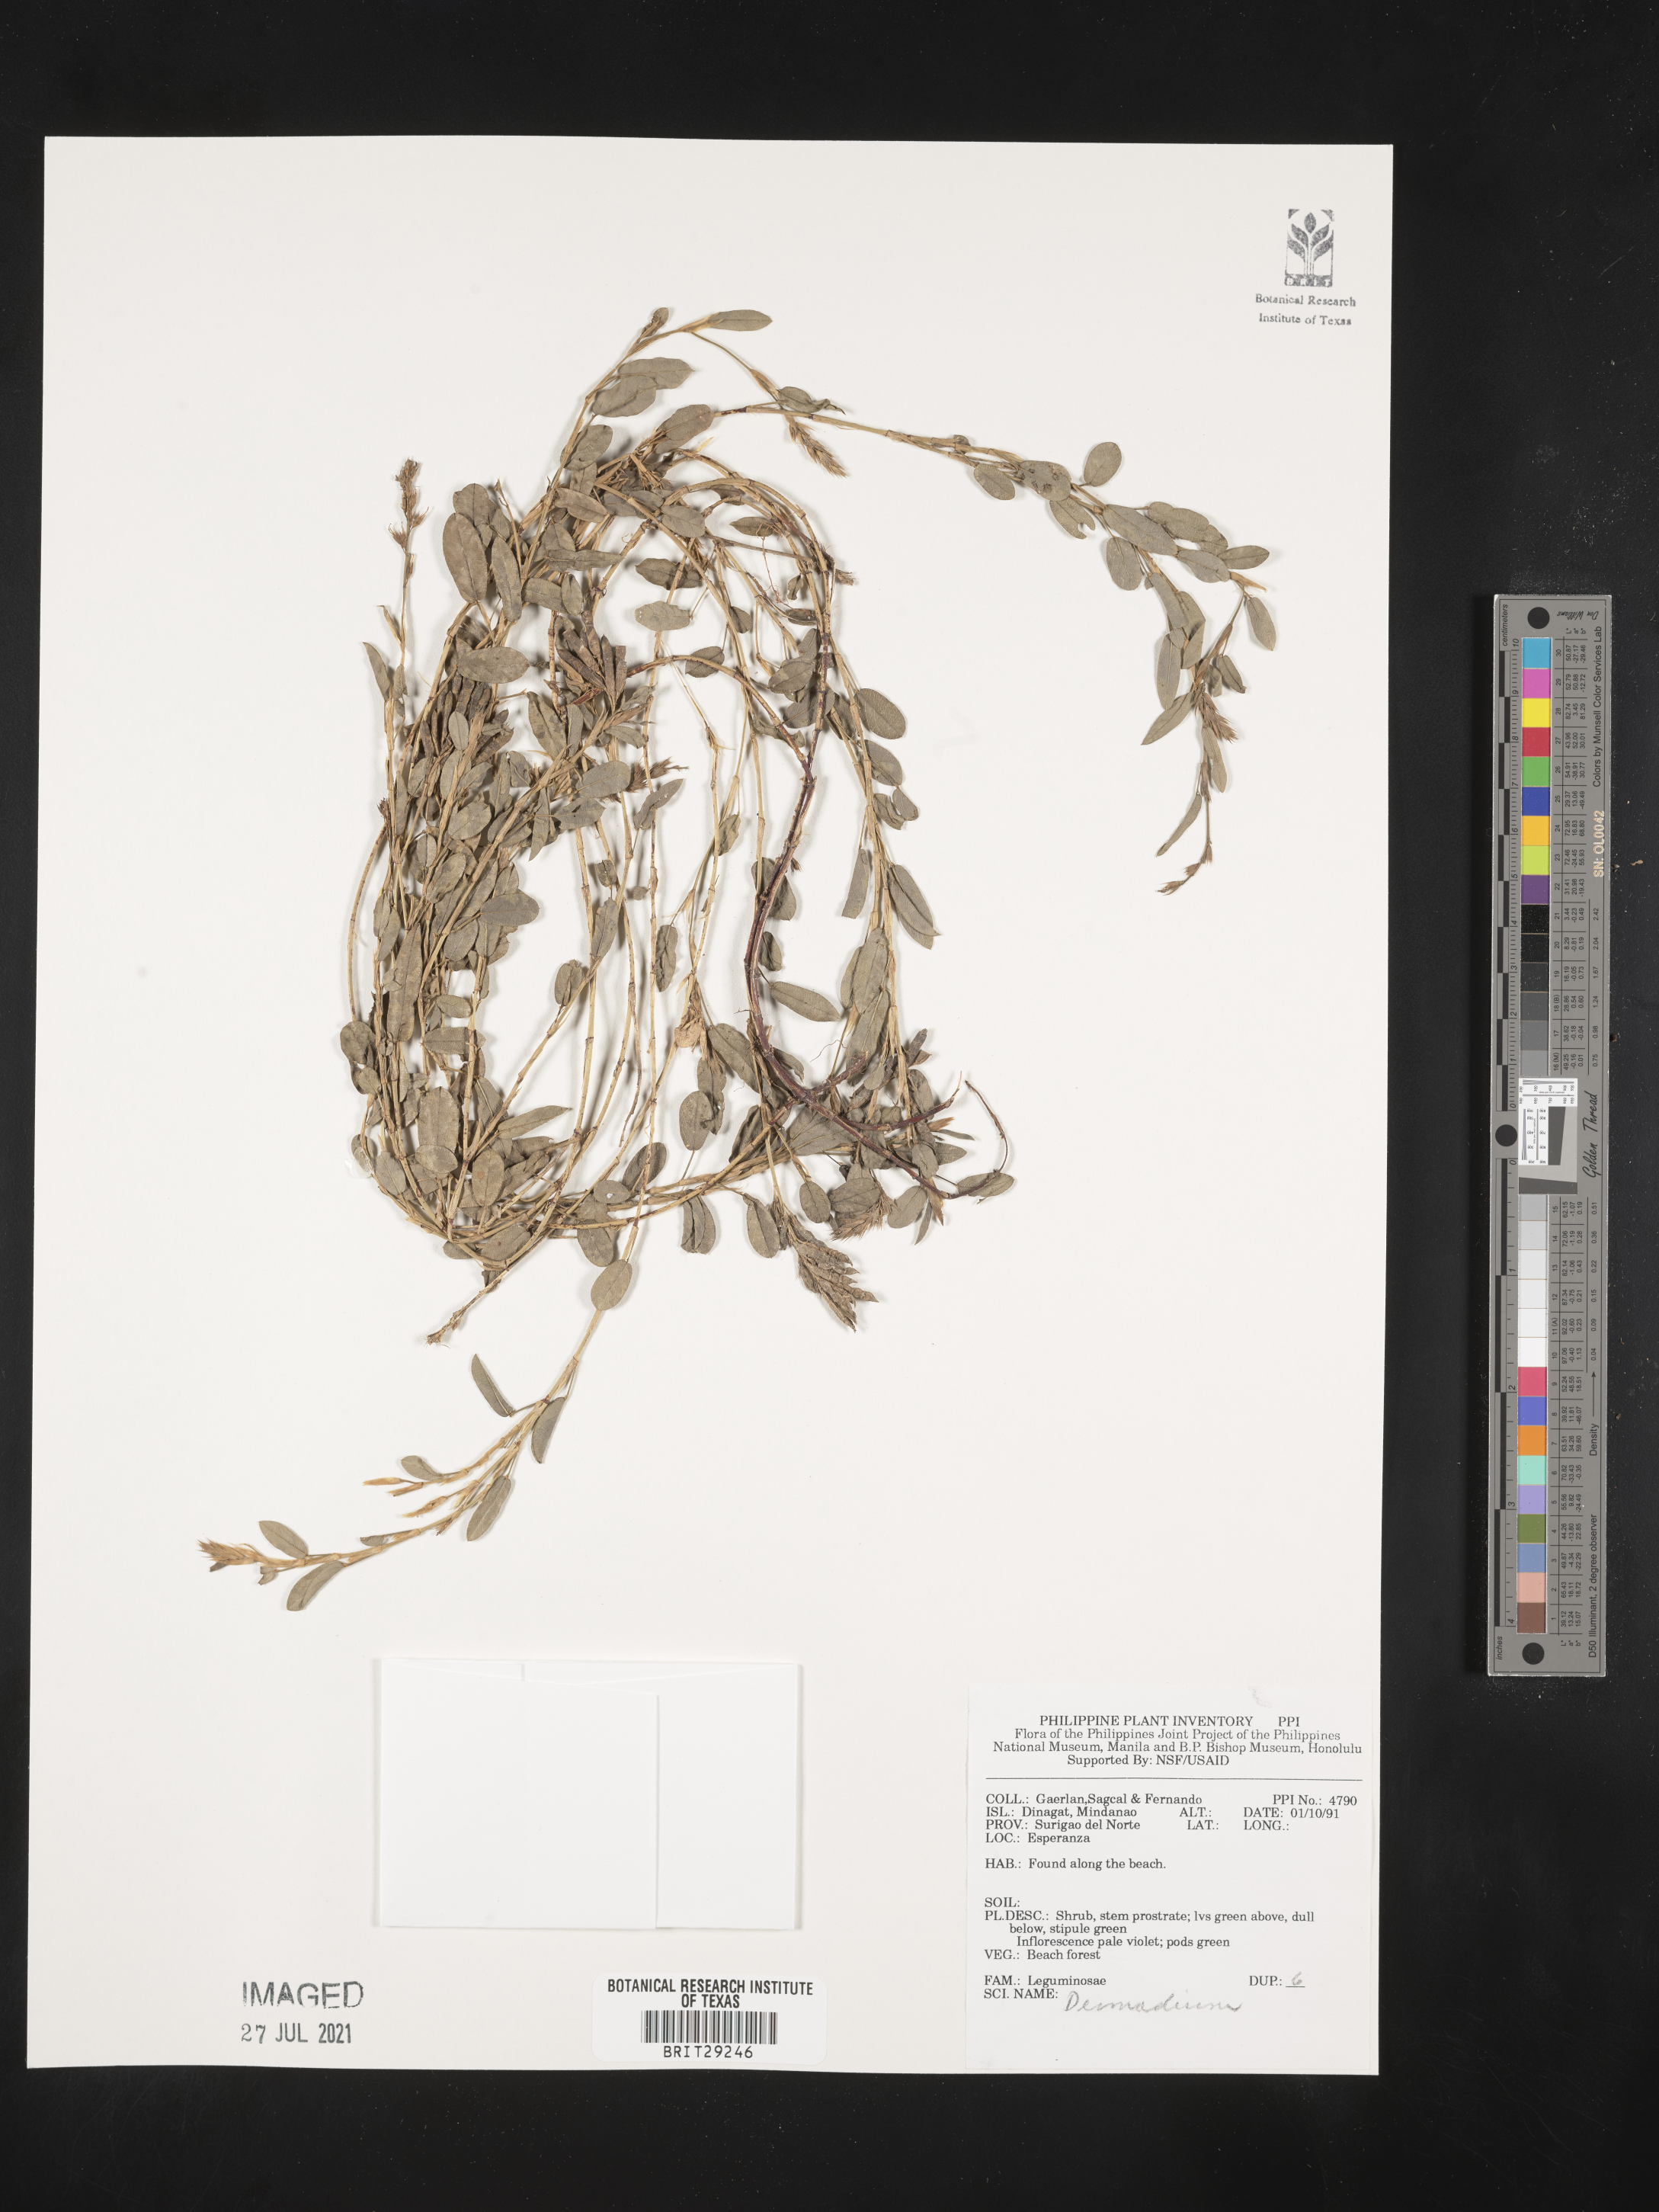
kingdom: Plantae
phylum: Tracheophyta
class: Magnoliopsida
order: Fabales
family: Fabaceae
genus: Desmodium
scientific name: Desmodium
